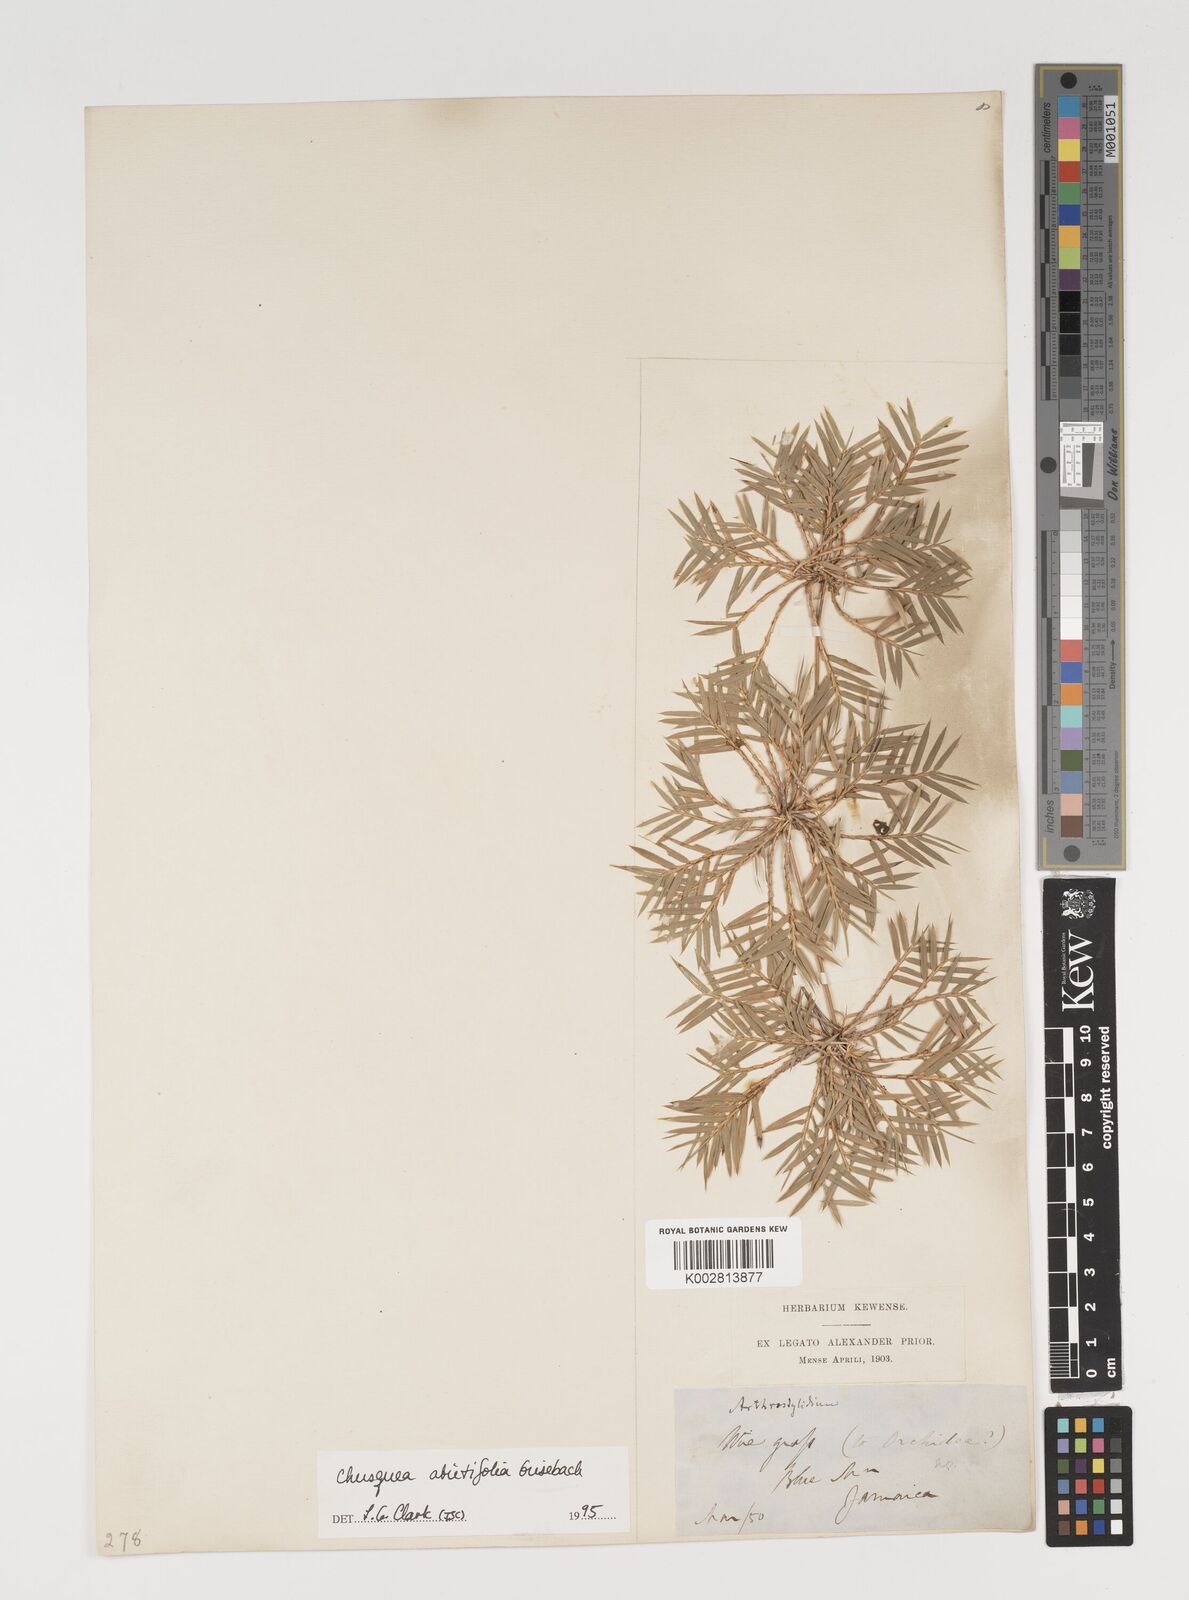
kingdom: Plantae
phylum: Tracheophyta
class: Liliopsida
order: Poales
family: Poaceae
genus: Chusquea
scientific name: Chusquea abietifolia
